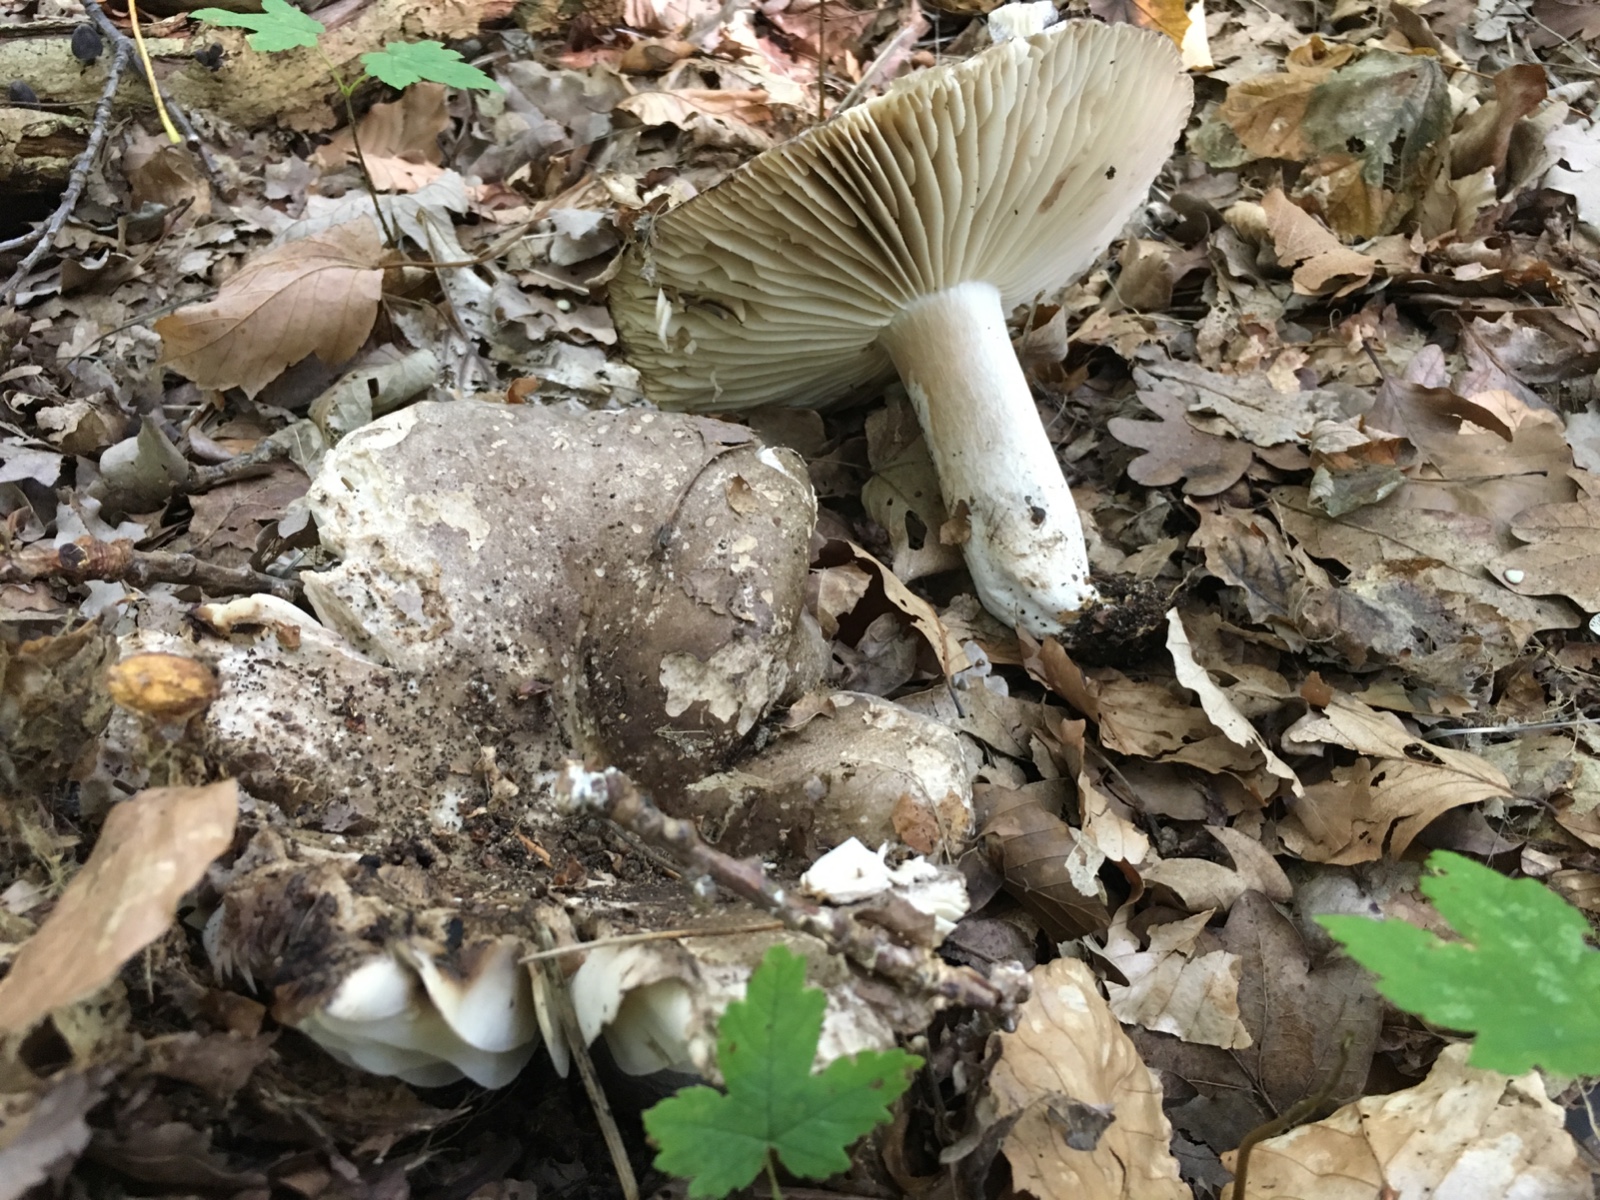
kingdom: Fungi
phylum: Basidiomycota
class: Agaricomycetes
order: Russulales
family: Russulaceae
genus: Russula
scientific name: Russula adusta
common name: sværtende skørhat
